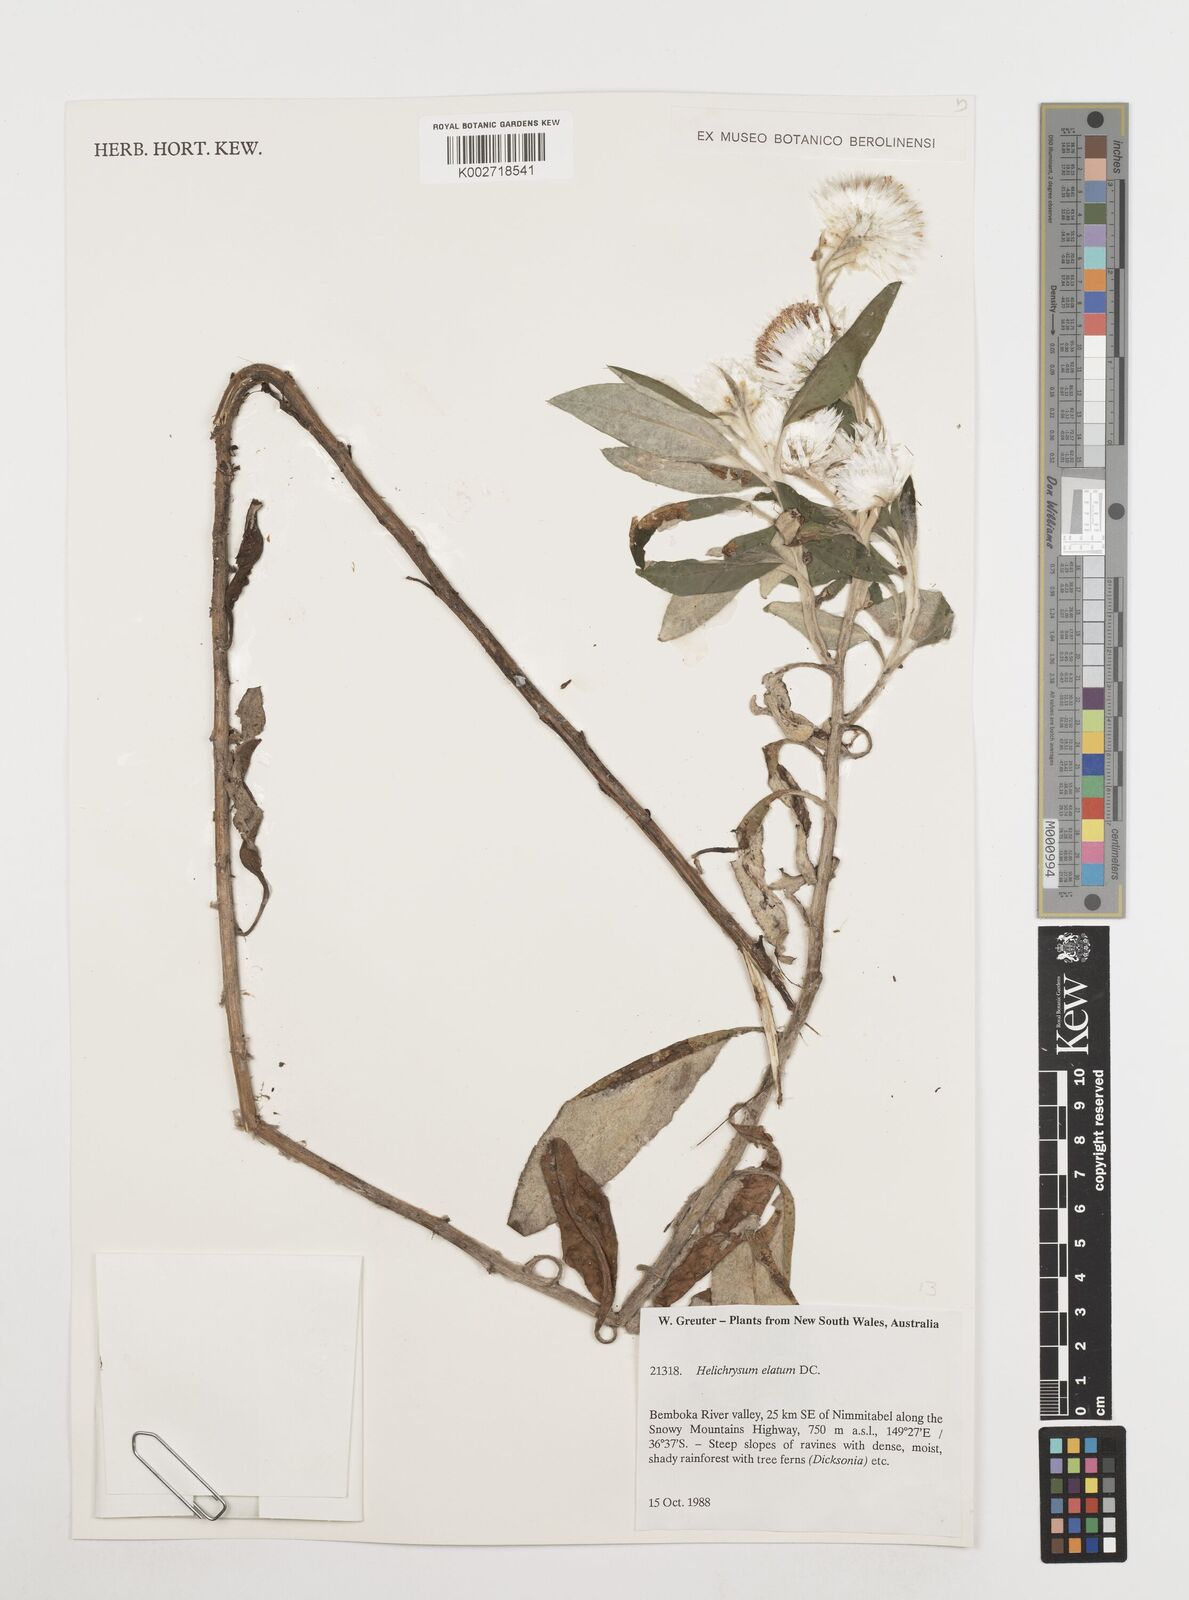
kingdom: Plantae
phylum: Tracheophyta
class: Magnoliopsida
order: Asterales
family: Asteraceae
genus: Leucozoma
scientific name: Leucozoma elatum
